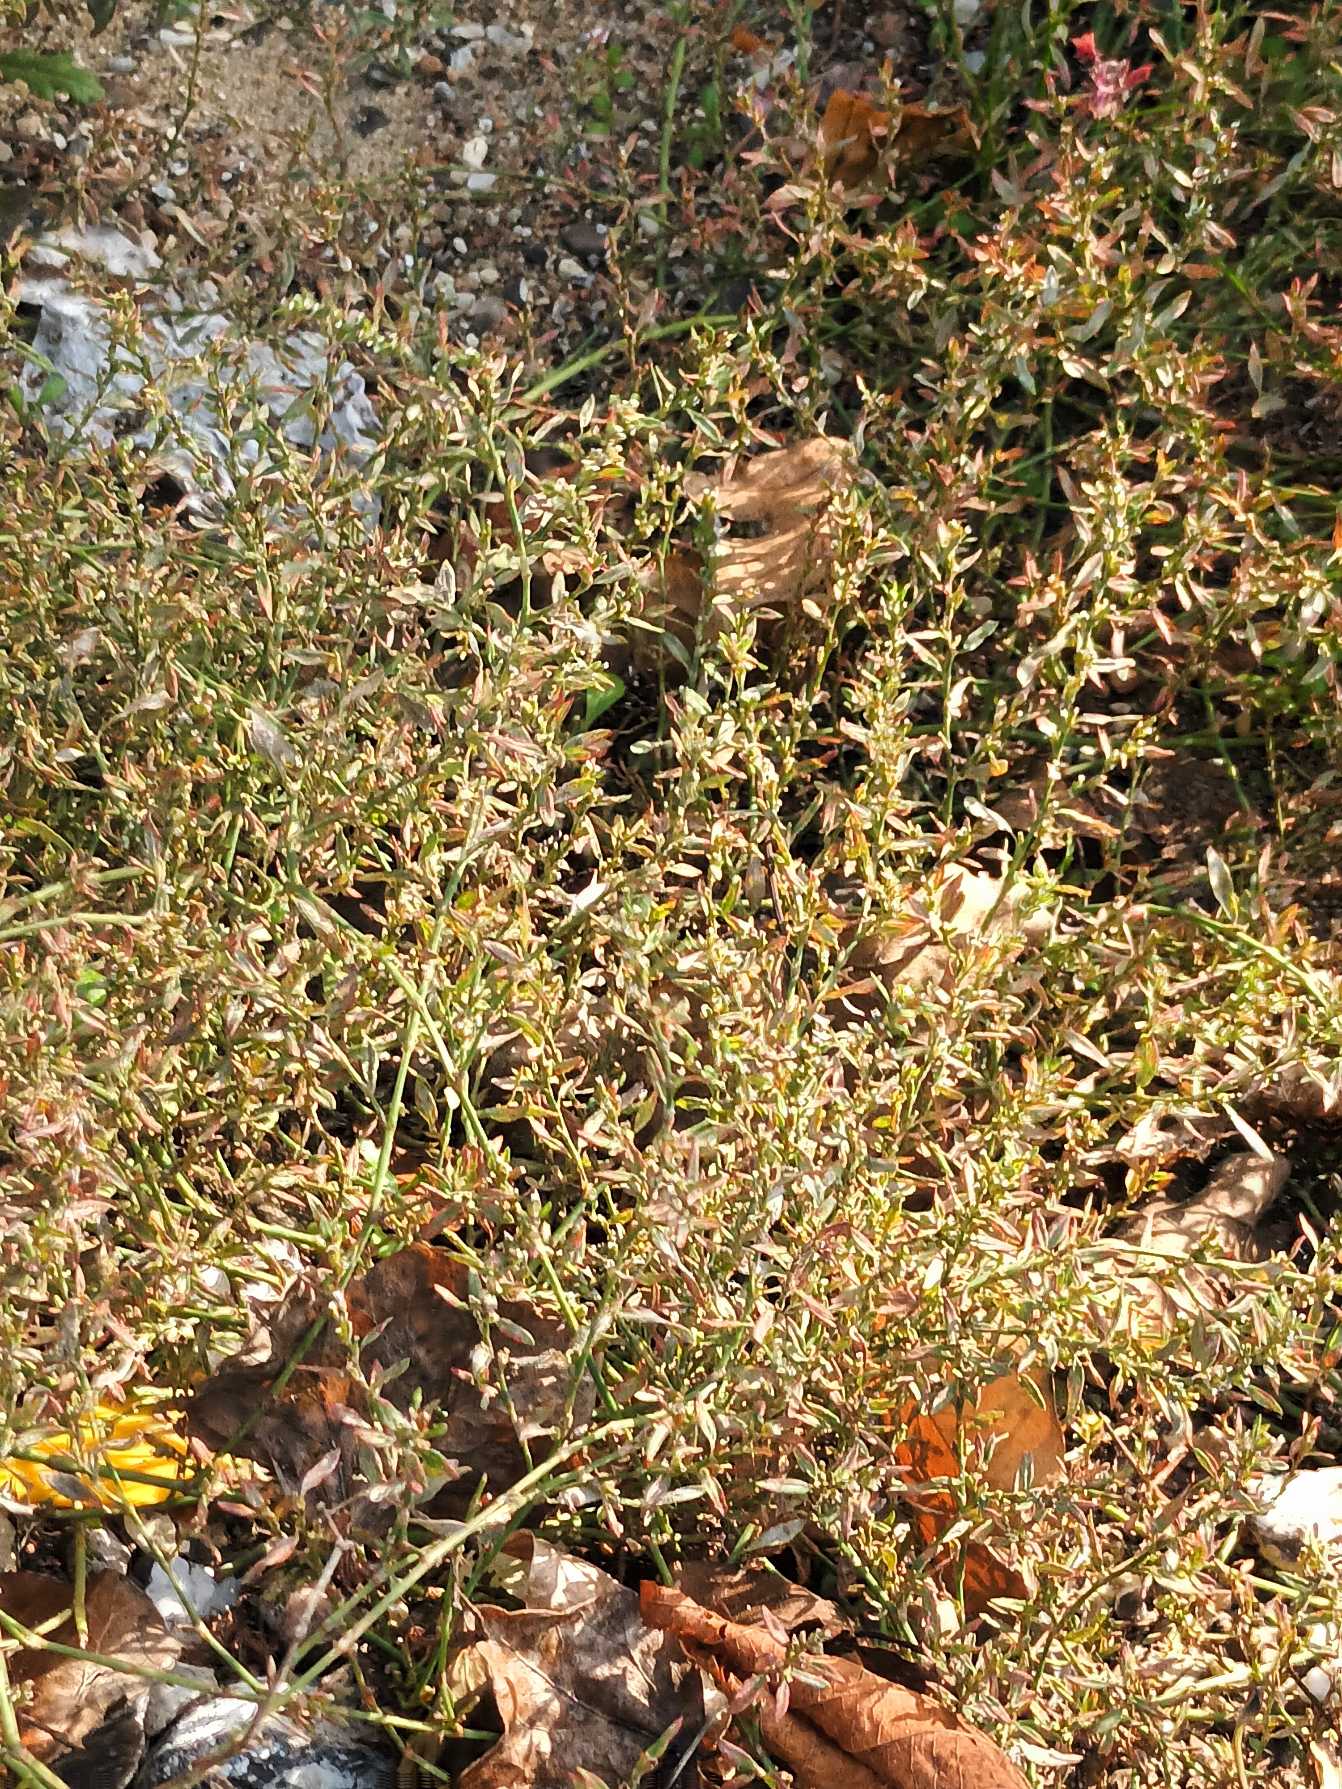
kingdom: Plantae
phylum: Tracheophyta
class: Magnoliopsida
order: Caryophyllales
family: Polygonaceae
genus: Polygonum
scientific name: Polygonum arenastrum
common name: Liggende vej-pileurt
